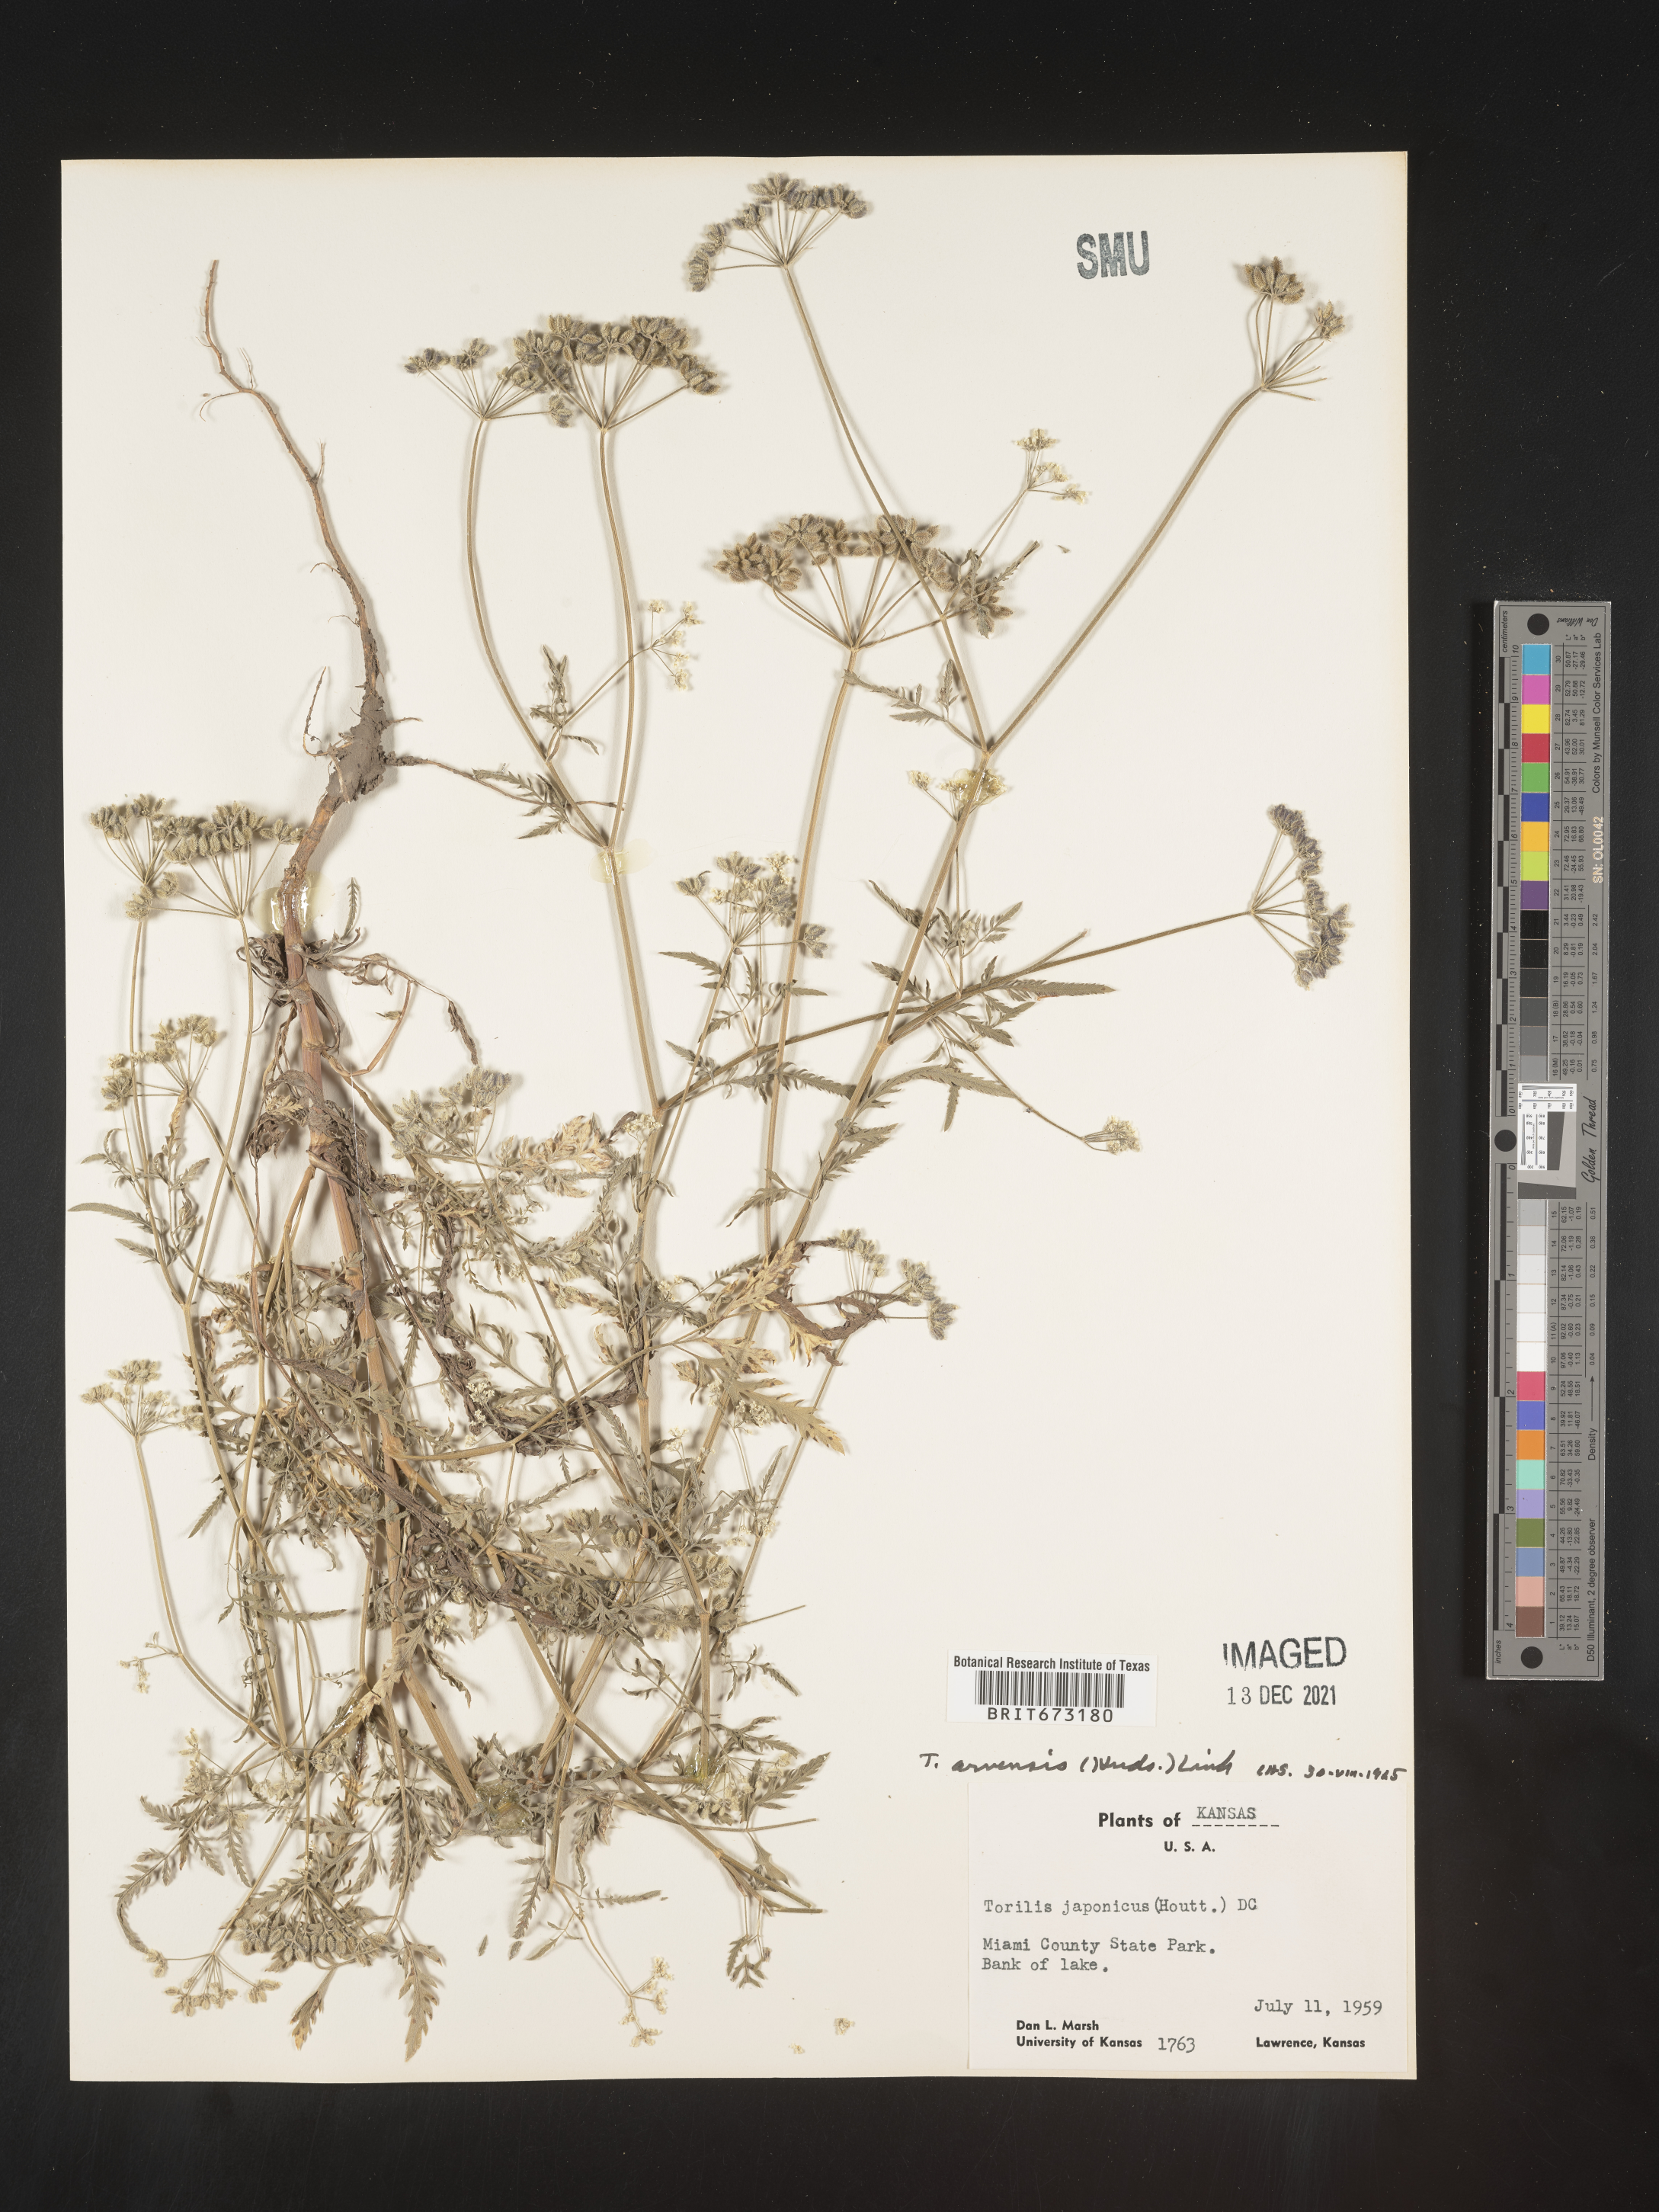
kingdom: Plantae
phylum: Tracheophyta
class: Magnoliopsida
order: Apiales
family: Apiaceae
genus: Torilis
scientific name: Torilis arvensis
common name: Spreading hedge-parsley
